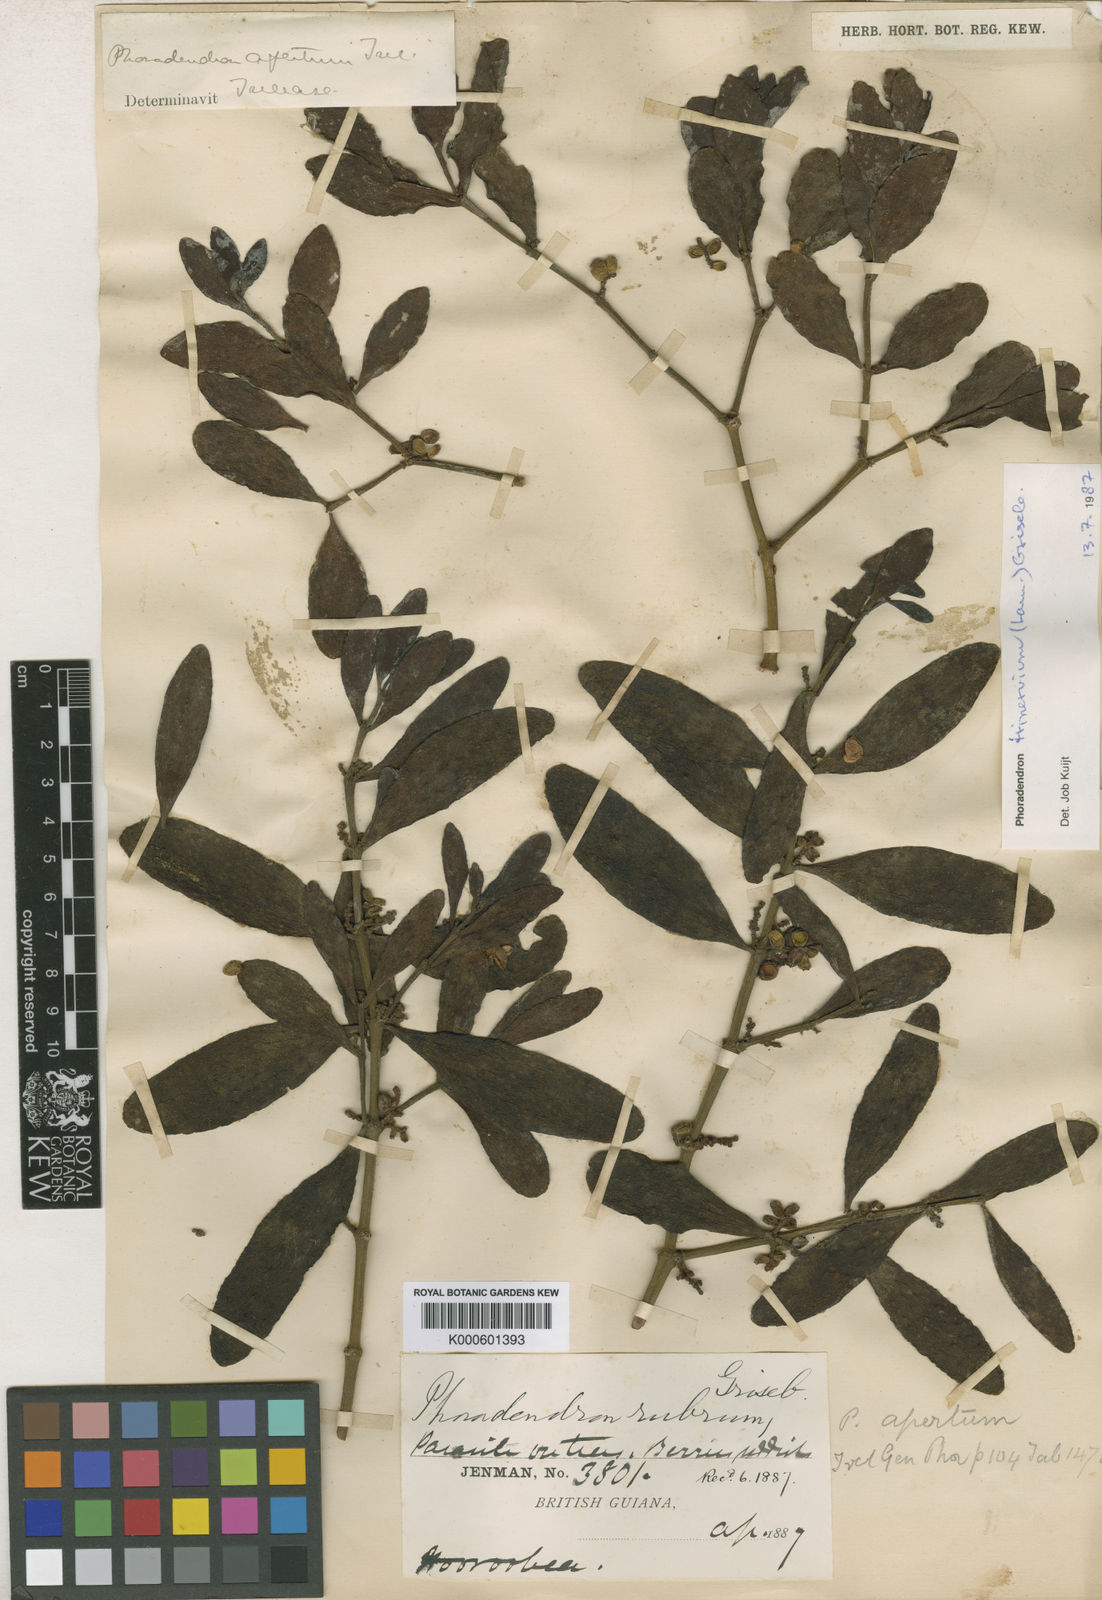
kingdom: Plantae
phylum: Tracheophyta
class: Magnoliopsida
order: Santalales
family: Viscaceae
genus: Phoradendron
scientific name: Phoradendron trinervium
